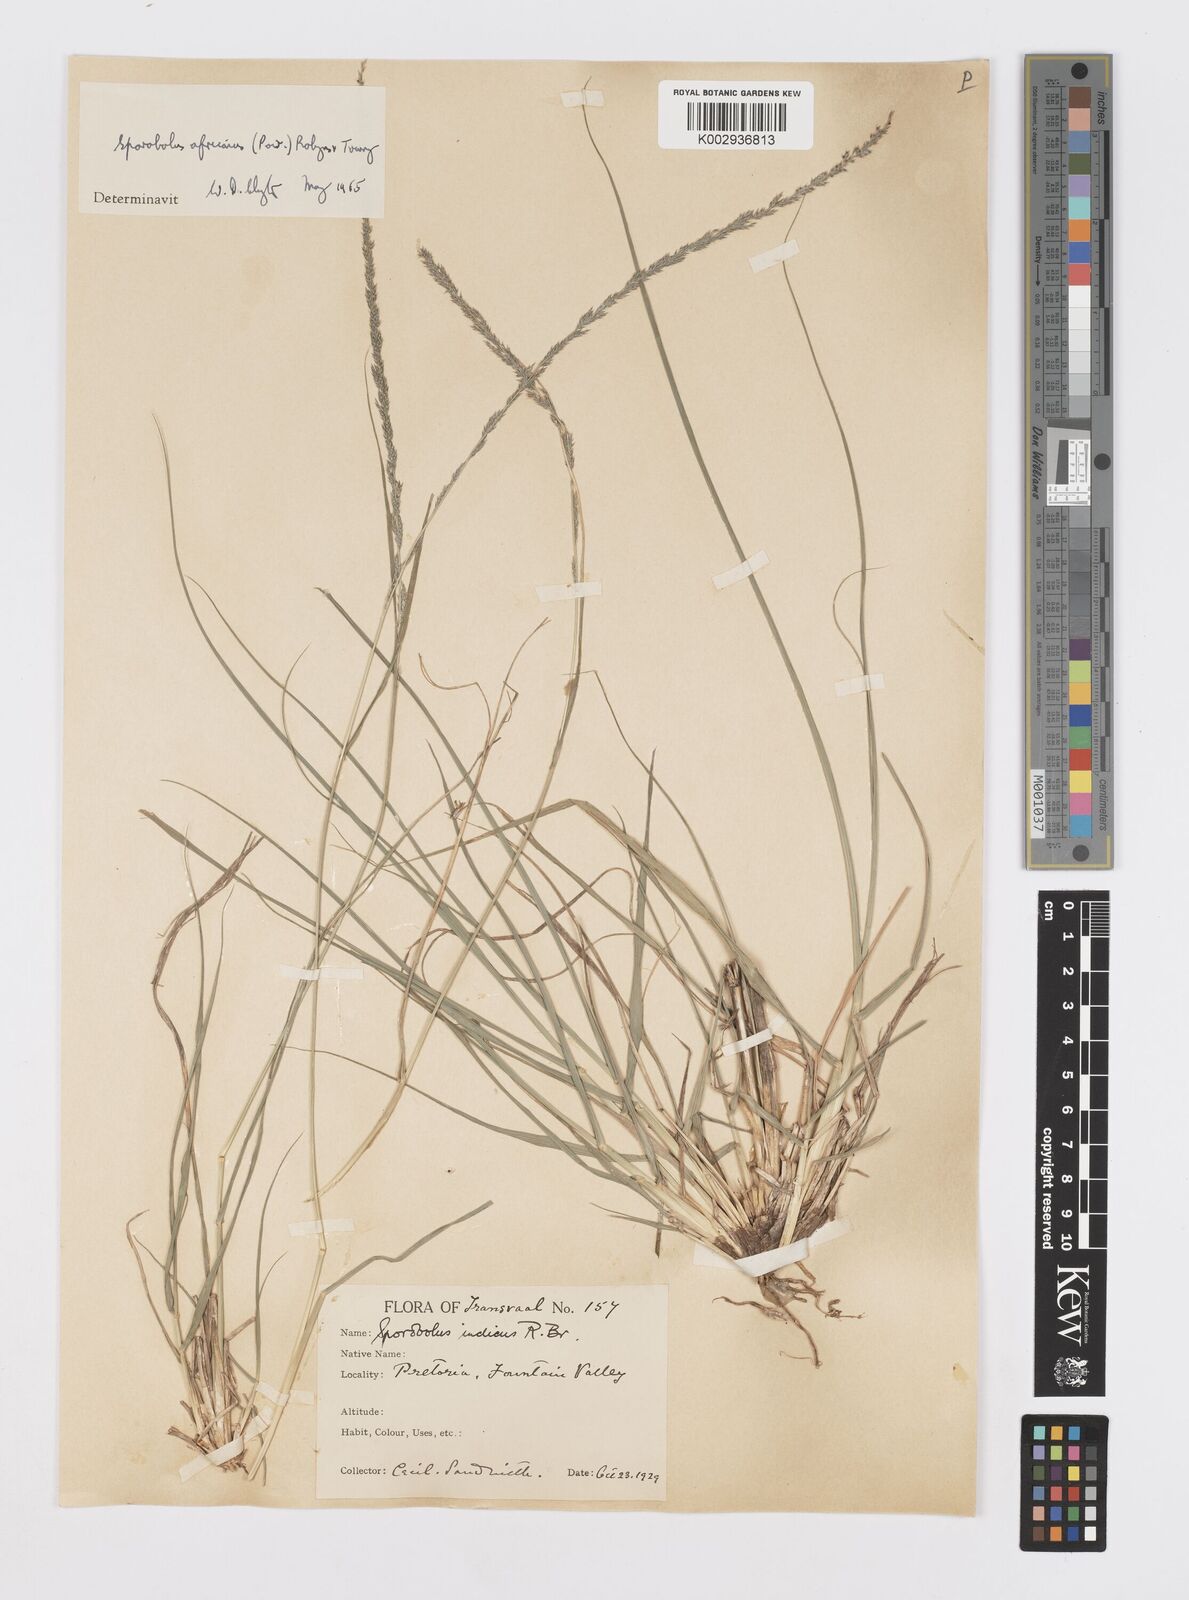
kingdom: Plantae
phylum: Tracheophyta
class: Liliopsida
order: Poales
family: Poaceae
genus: Sporobolus
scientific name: Sporobolus africanus
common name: African dropseed
